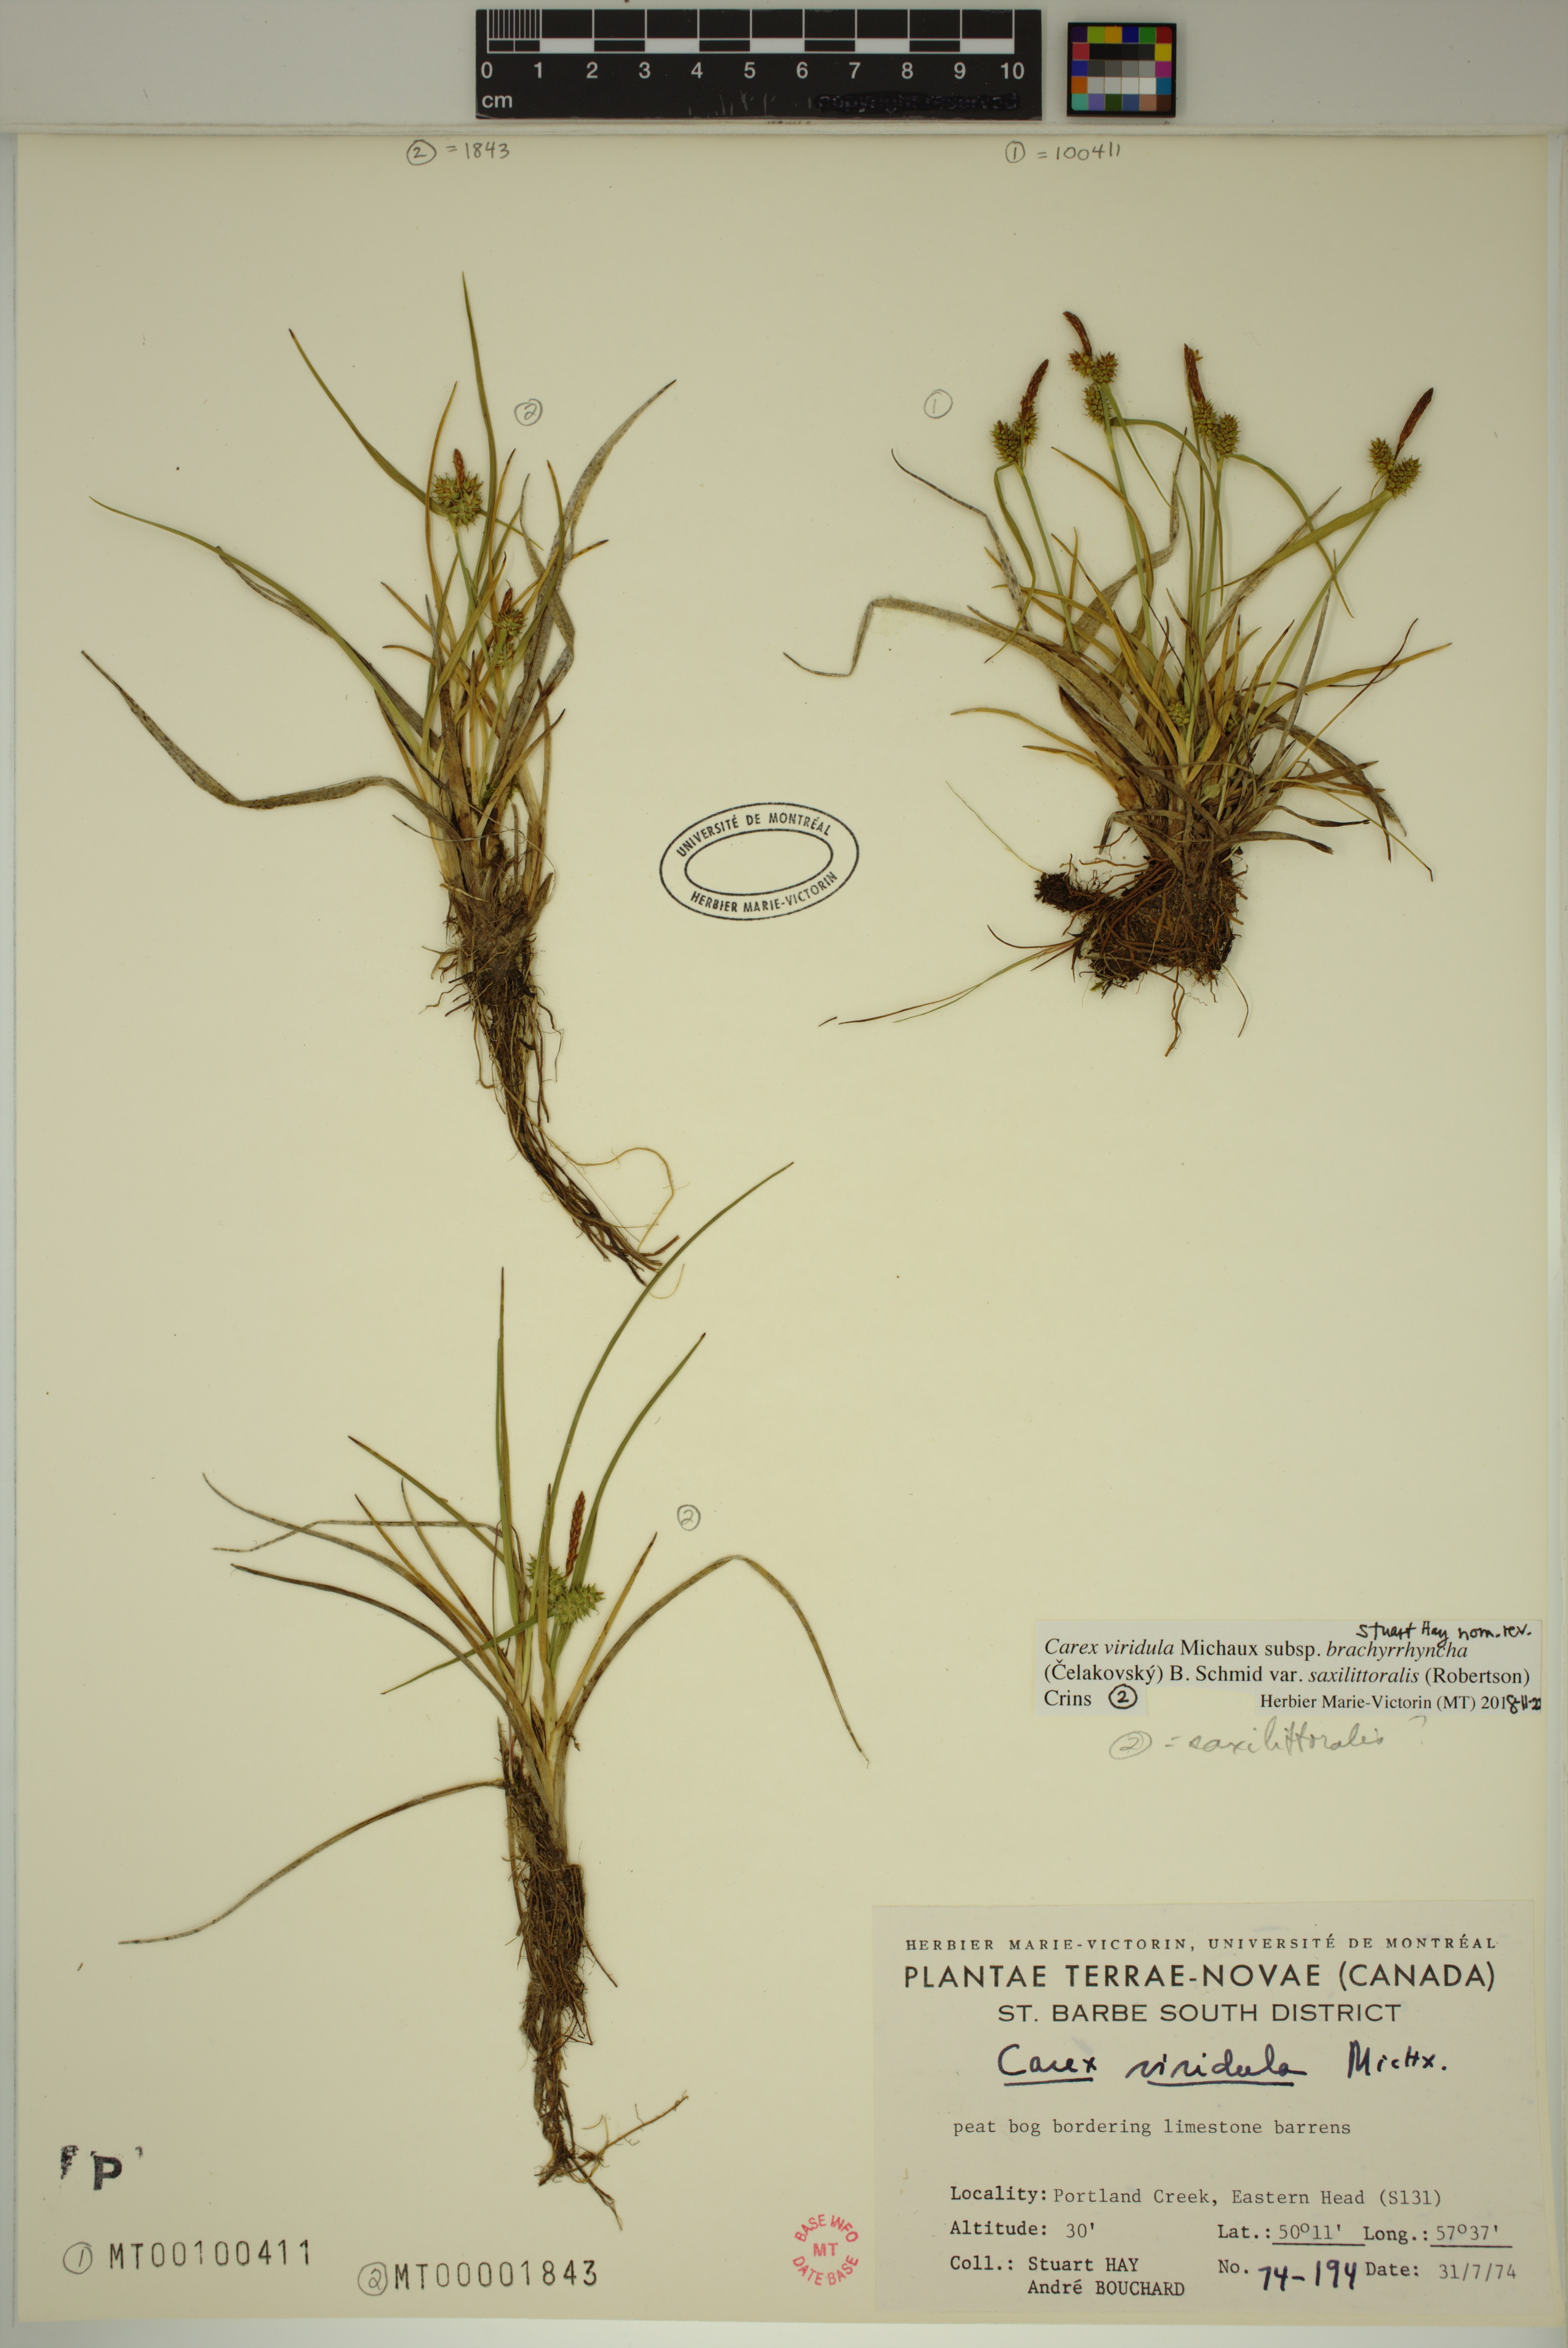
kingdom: Plantae
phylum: Tracheophyta
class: Liliopsida
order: Poales
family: Cyperaceae
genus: Carex
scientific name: Carex oederi
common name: Common & small-fruited yellow-sedge
